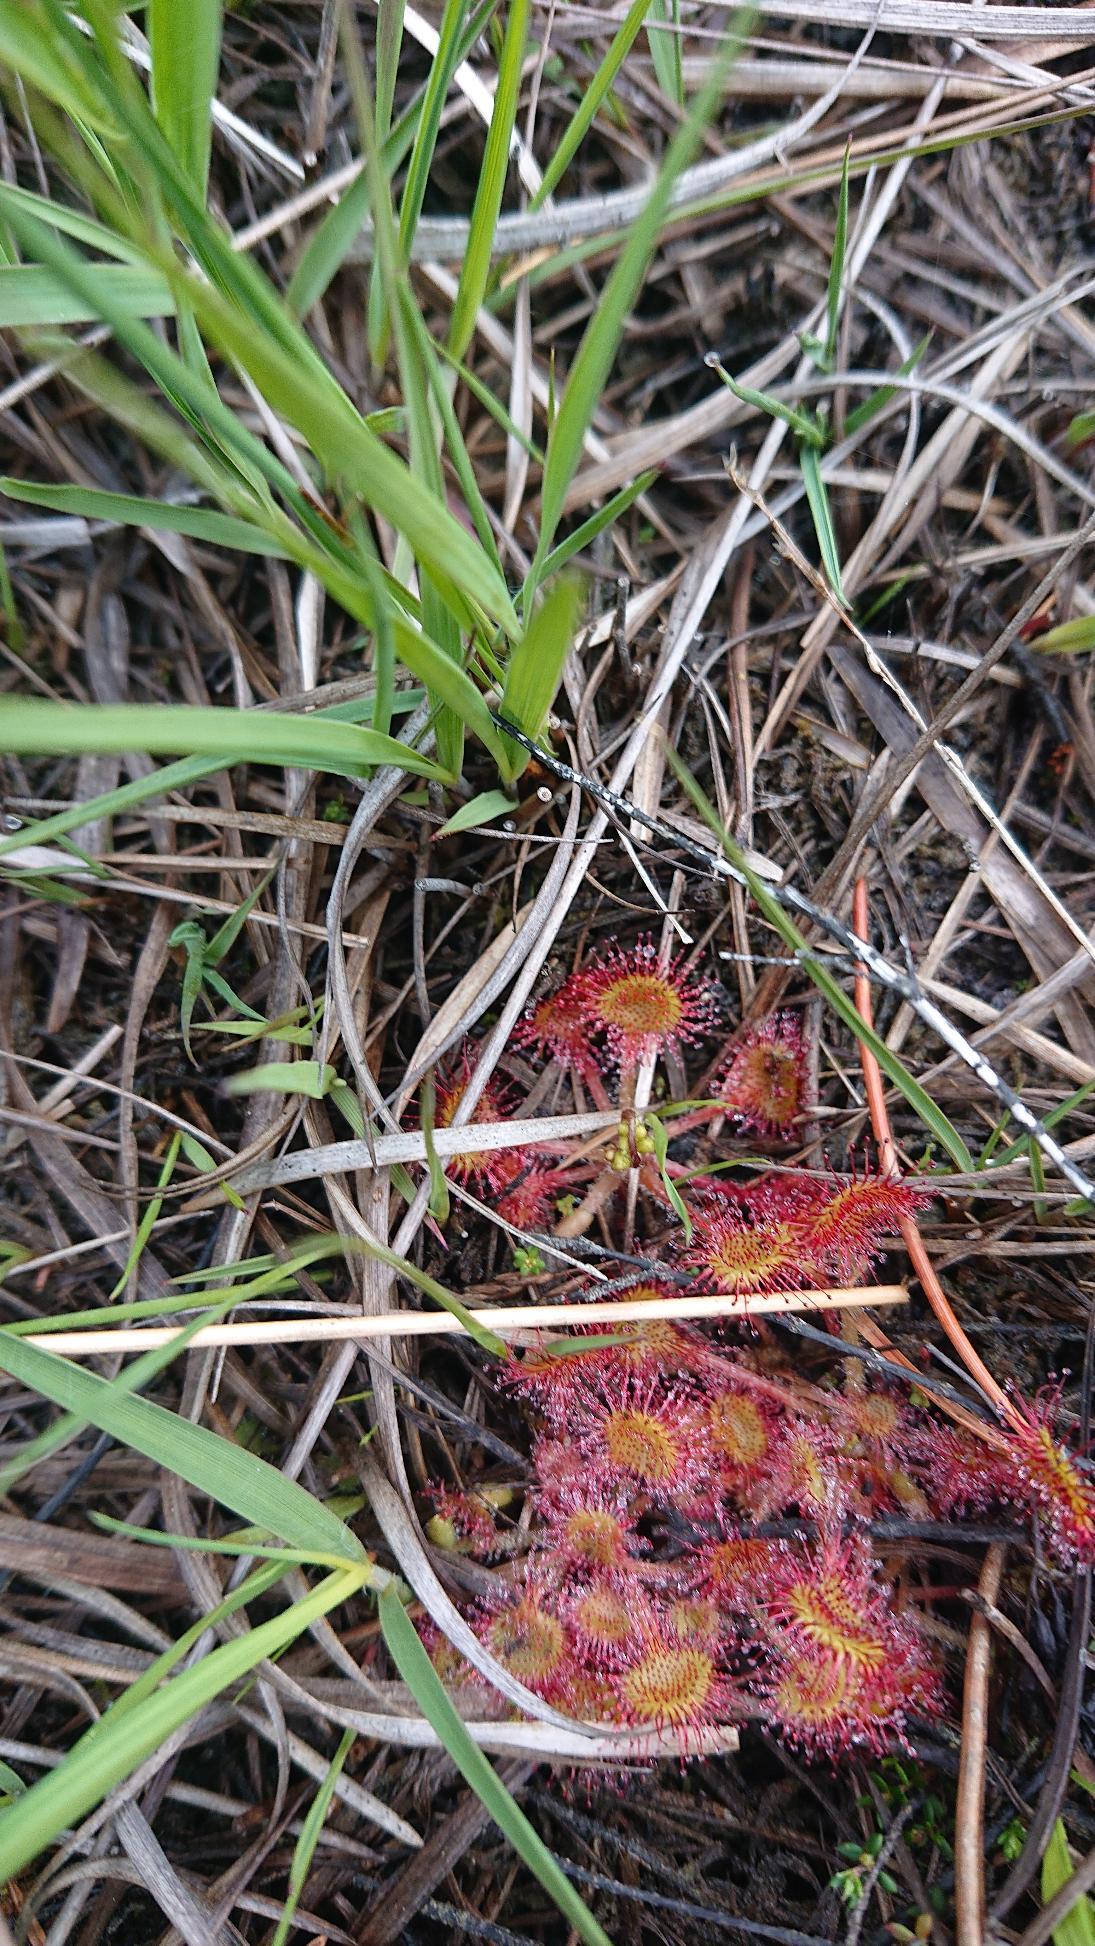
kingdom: Plantae
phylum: Tracheophyta
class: Magnoliopsida
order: Caryophyllales
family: Droseraceae
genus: Drosera
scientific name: Drosera rotundifolia
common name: Rundbladet soldug
